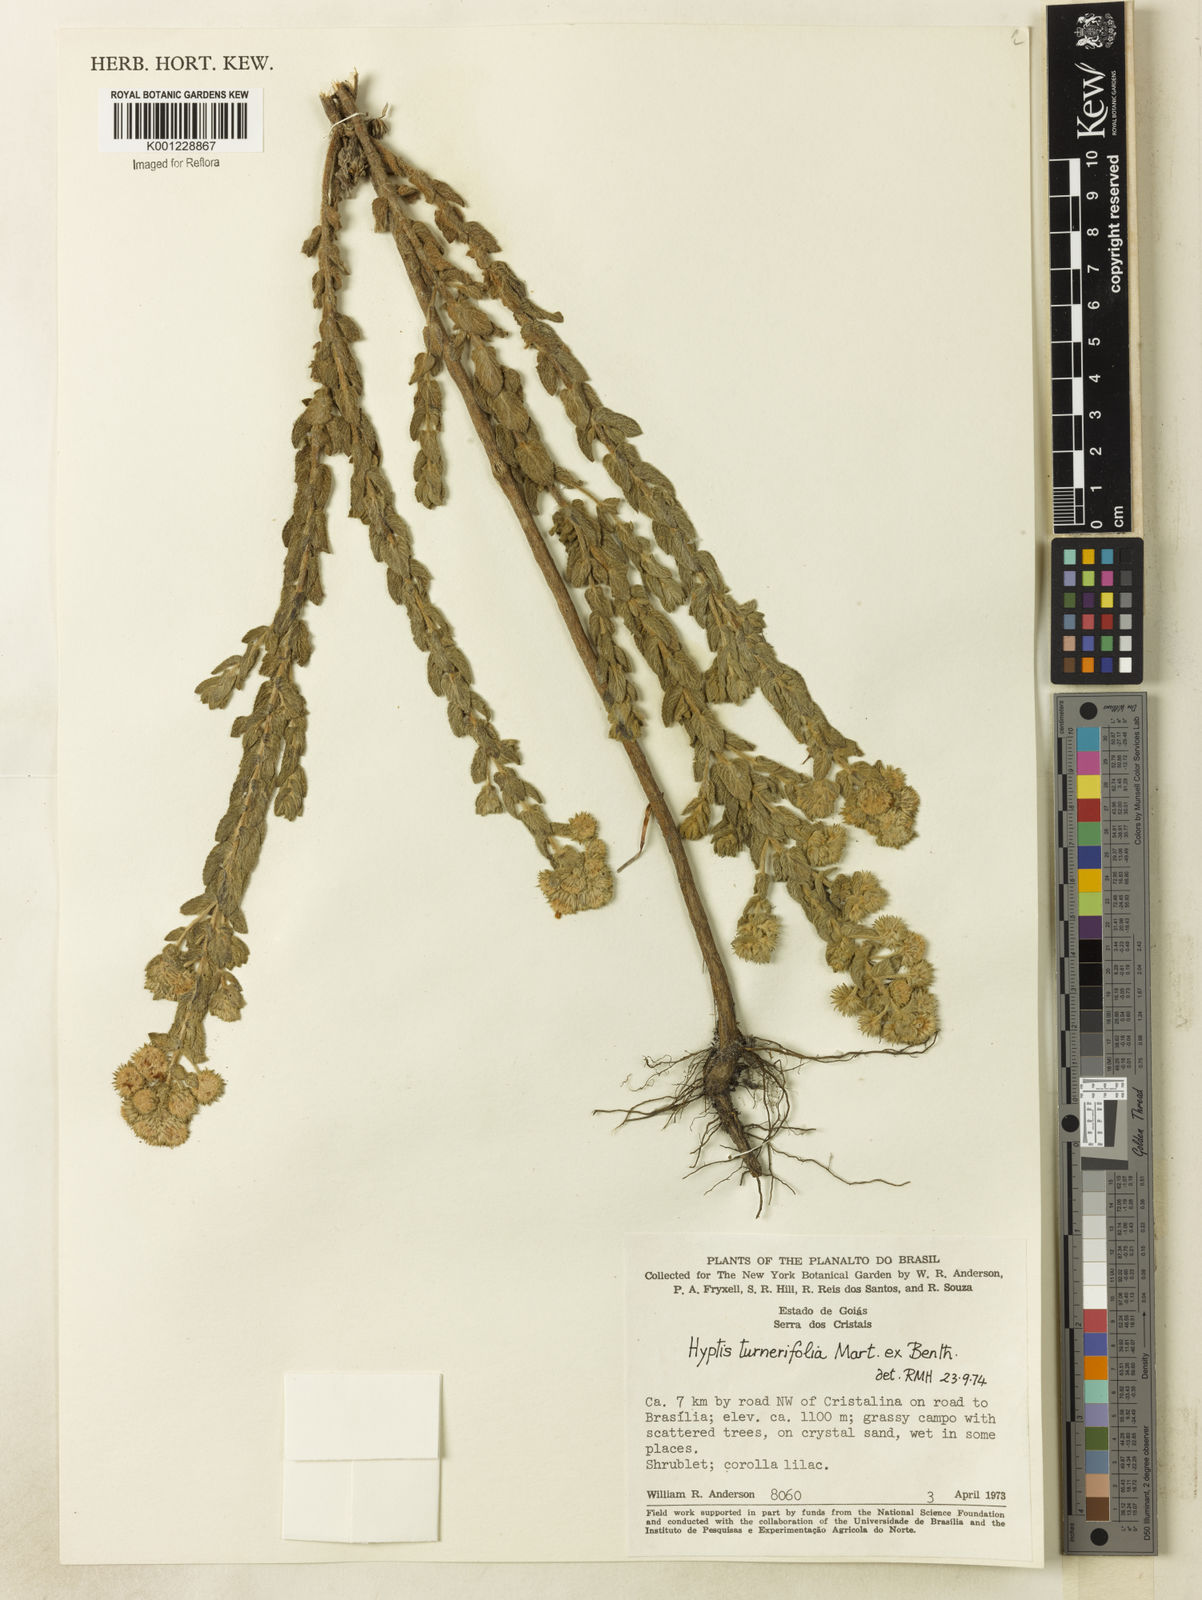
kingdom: Plantae
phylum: Tracheophyta
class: Magnoliopsida
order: Lamiales
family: Lamiaceae
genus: Hyptis
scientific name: Hyptis turnerifolia
